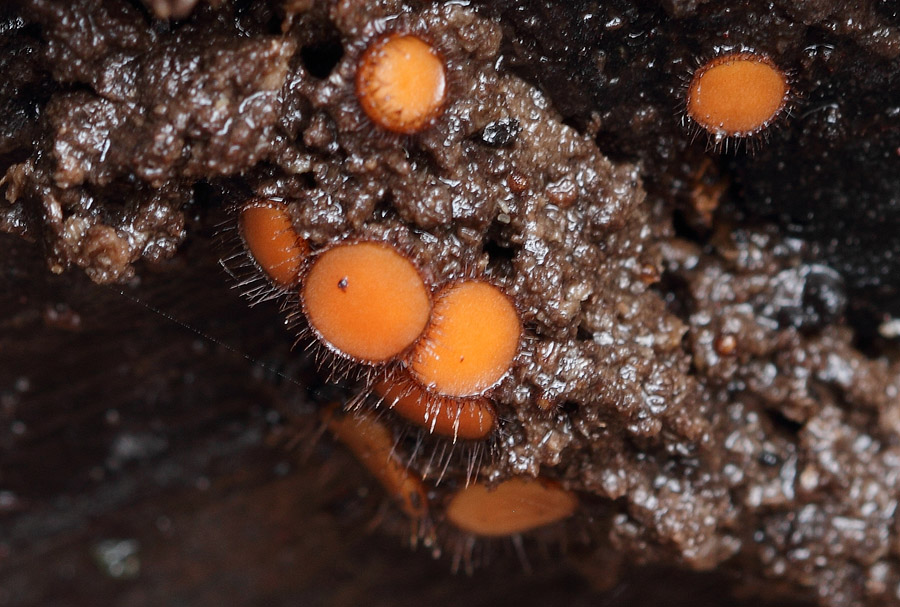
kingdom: Fungi
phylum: Ascomycota
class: Pezizomycetes
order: Pezizales
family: Pyronemataceae
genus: Scutellinia
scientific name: Scutellinia scutellata
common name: frynset skjoldbæger
